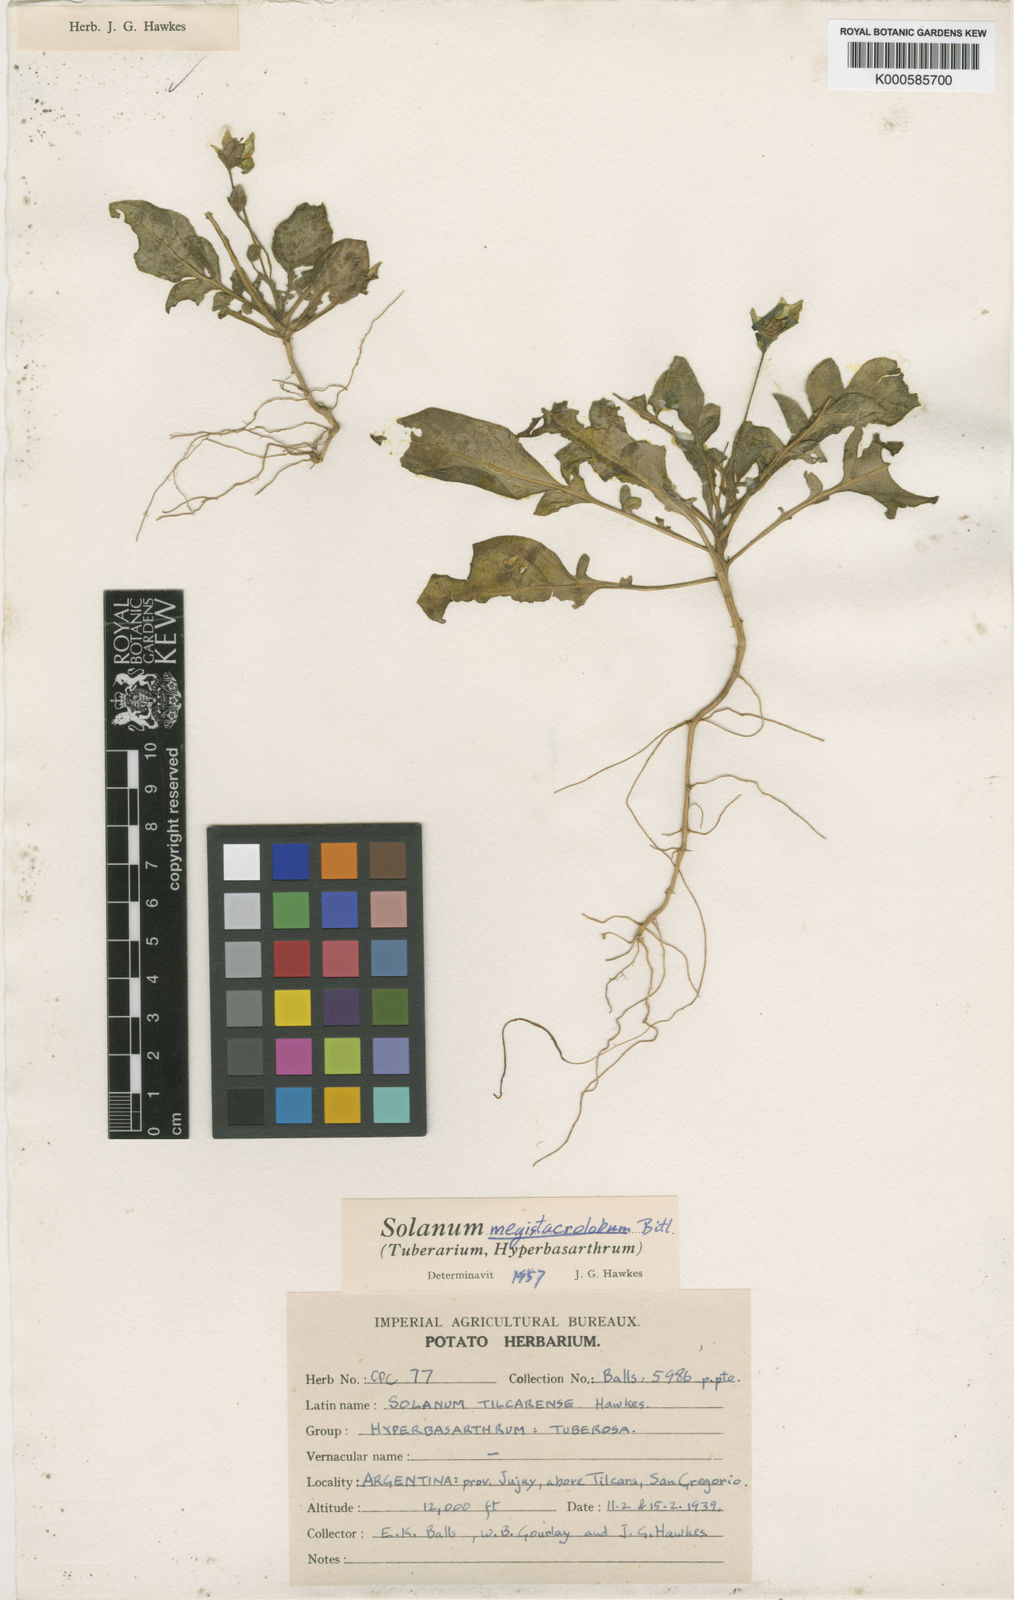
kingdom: Plantae
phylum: Tracheophyta
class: Magnoliopsida
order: Solanales
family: Solanaceae
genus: Solanum
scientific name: Solanum boliviense
